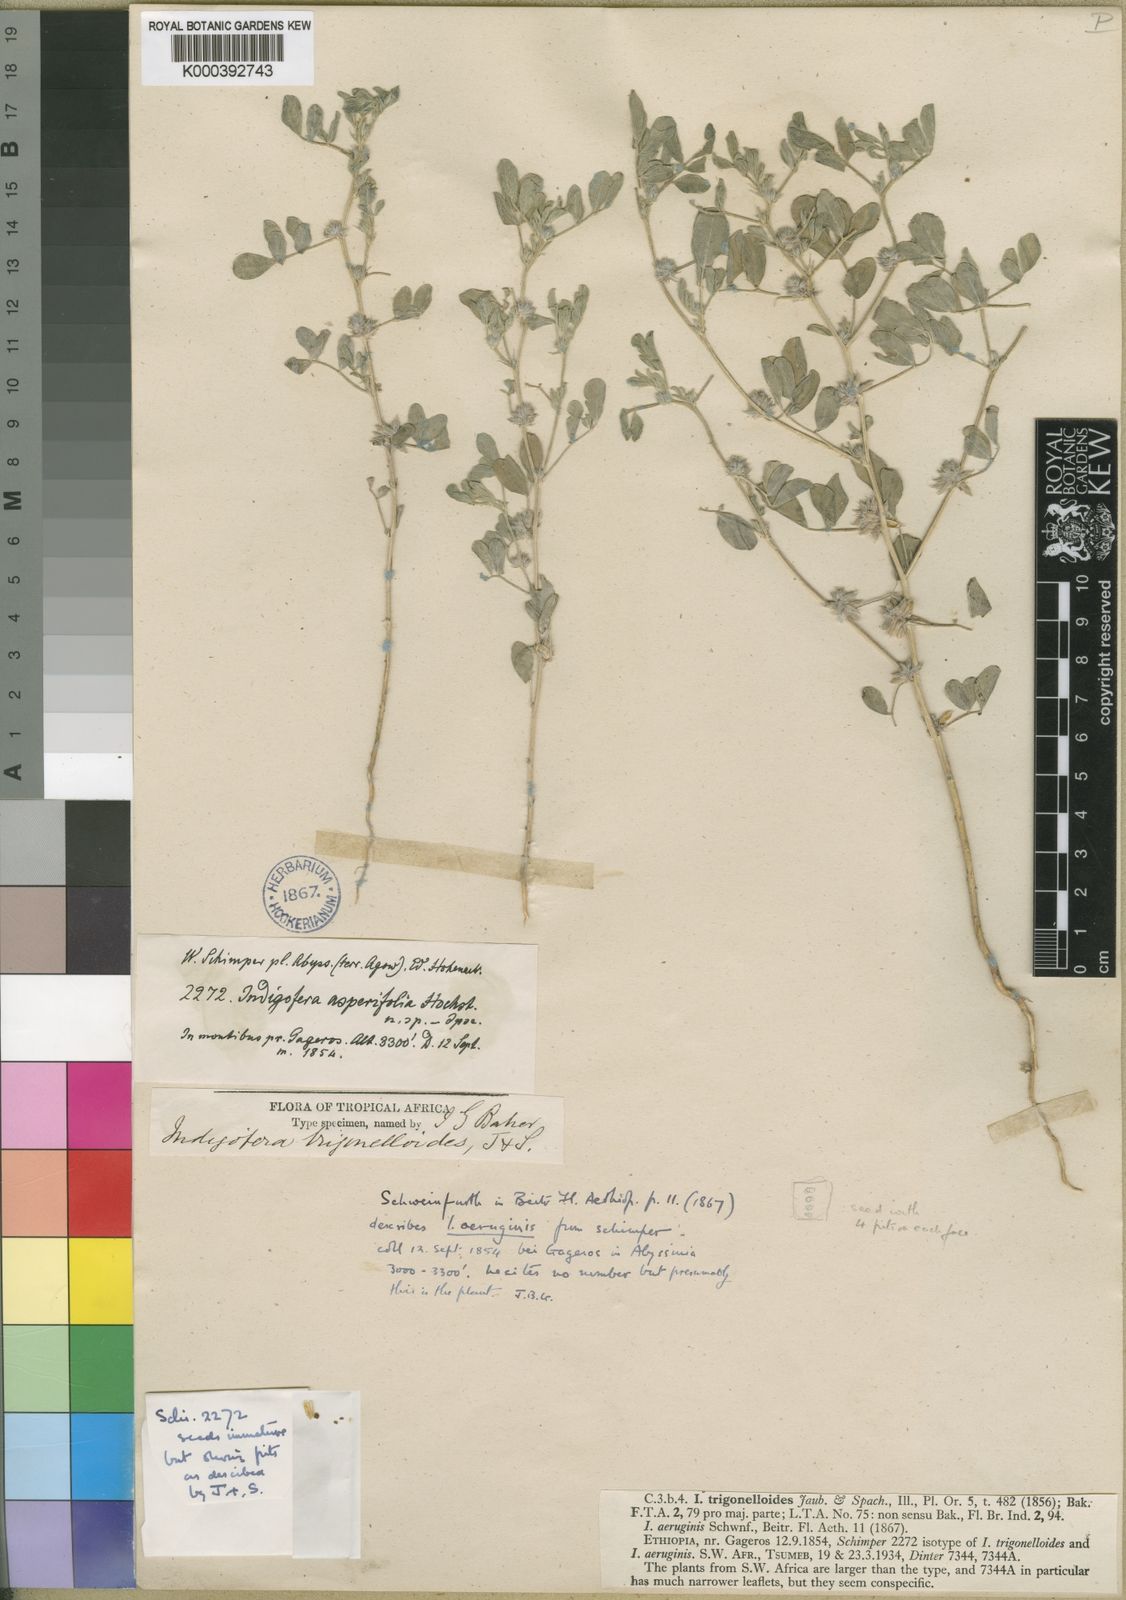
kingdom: Plantae
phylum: Tracheophyta
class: Magnoliopsida
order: Fabales
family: Fabaceae
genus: Indigofera
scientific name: Indigofera trigonelloides
